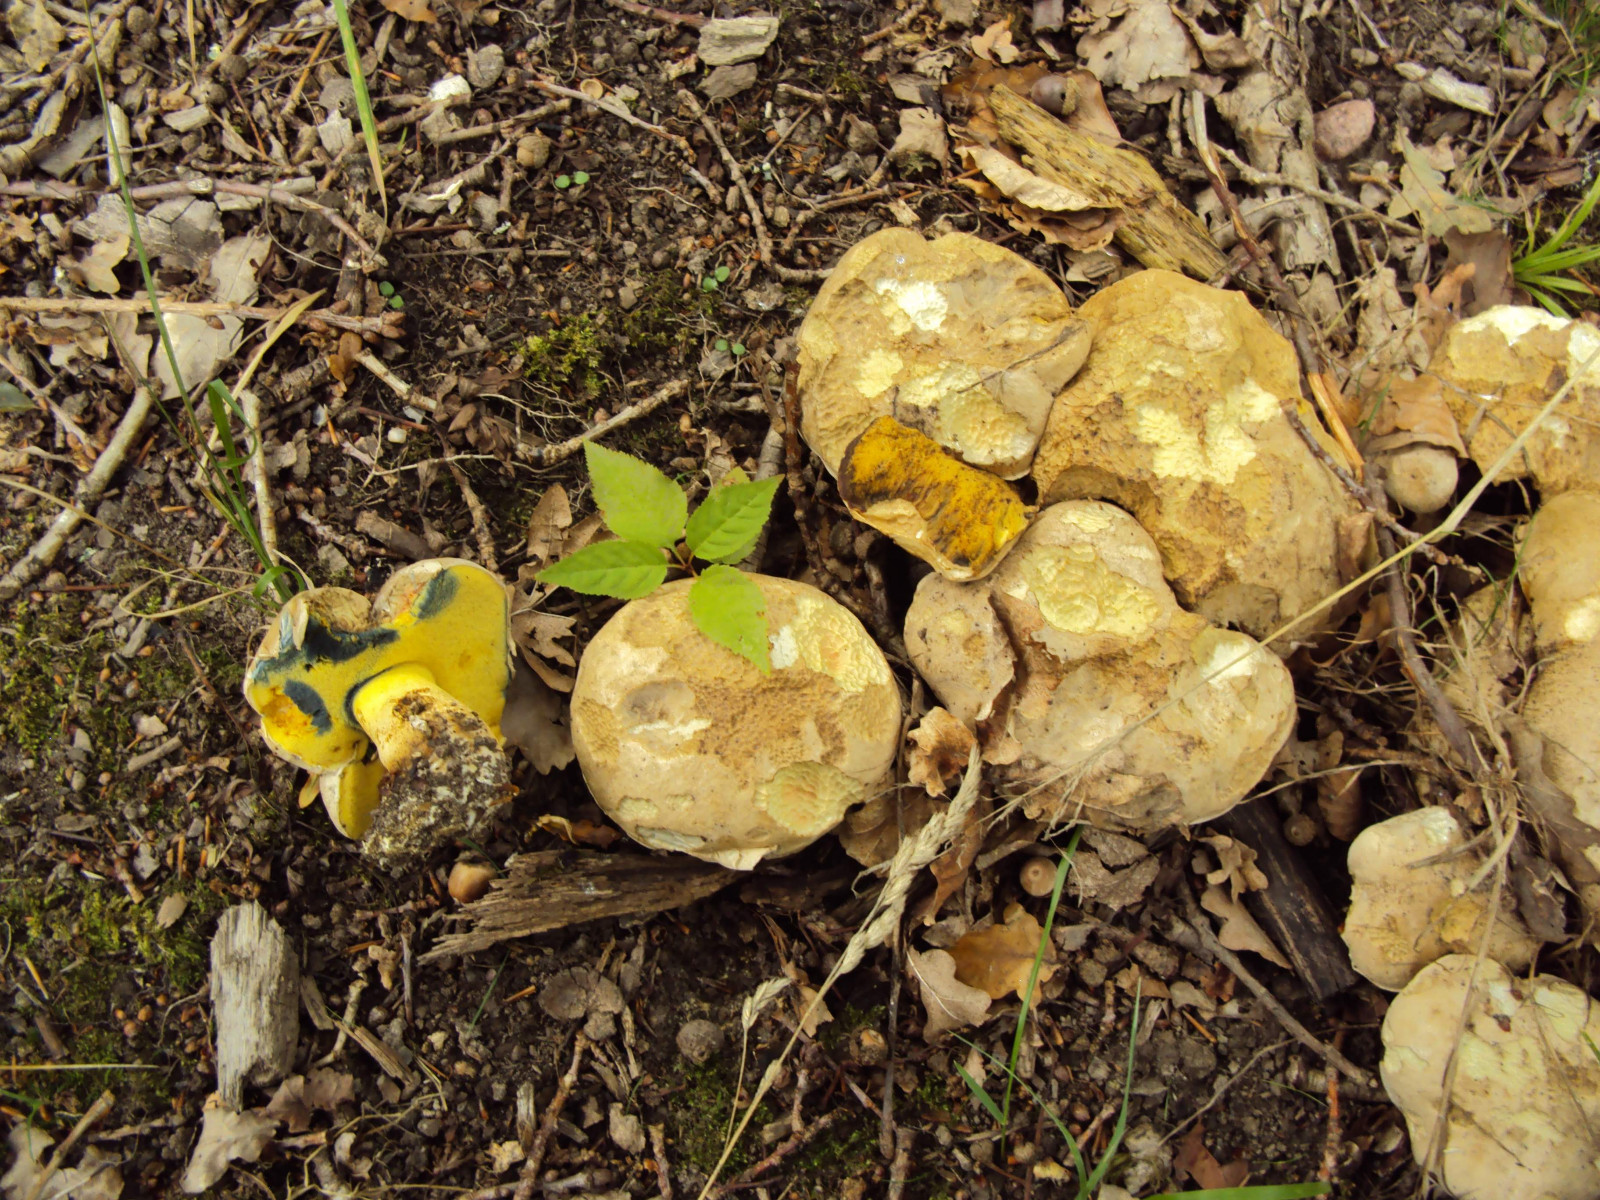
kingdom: Fungi
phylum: Basidiomycota
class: Agaricomycetes
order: Boletales
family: Boletaceae
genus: Caloboletus
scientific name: Caloboletus radicans
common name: rod-rørhat
